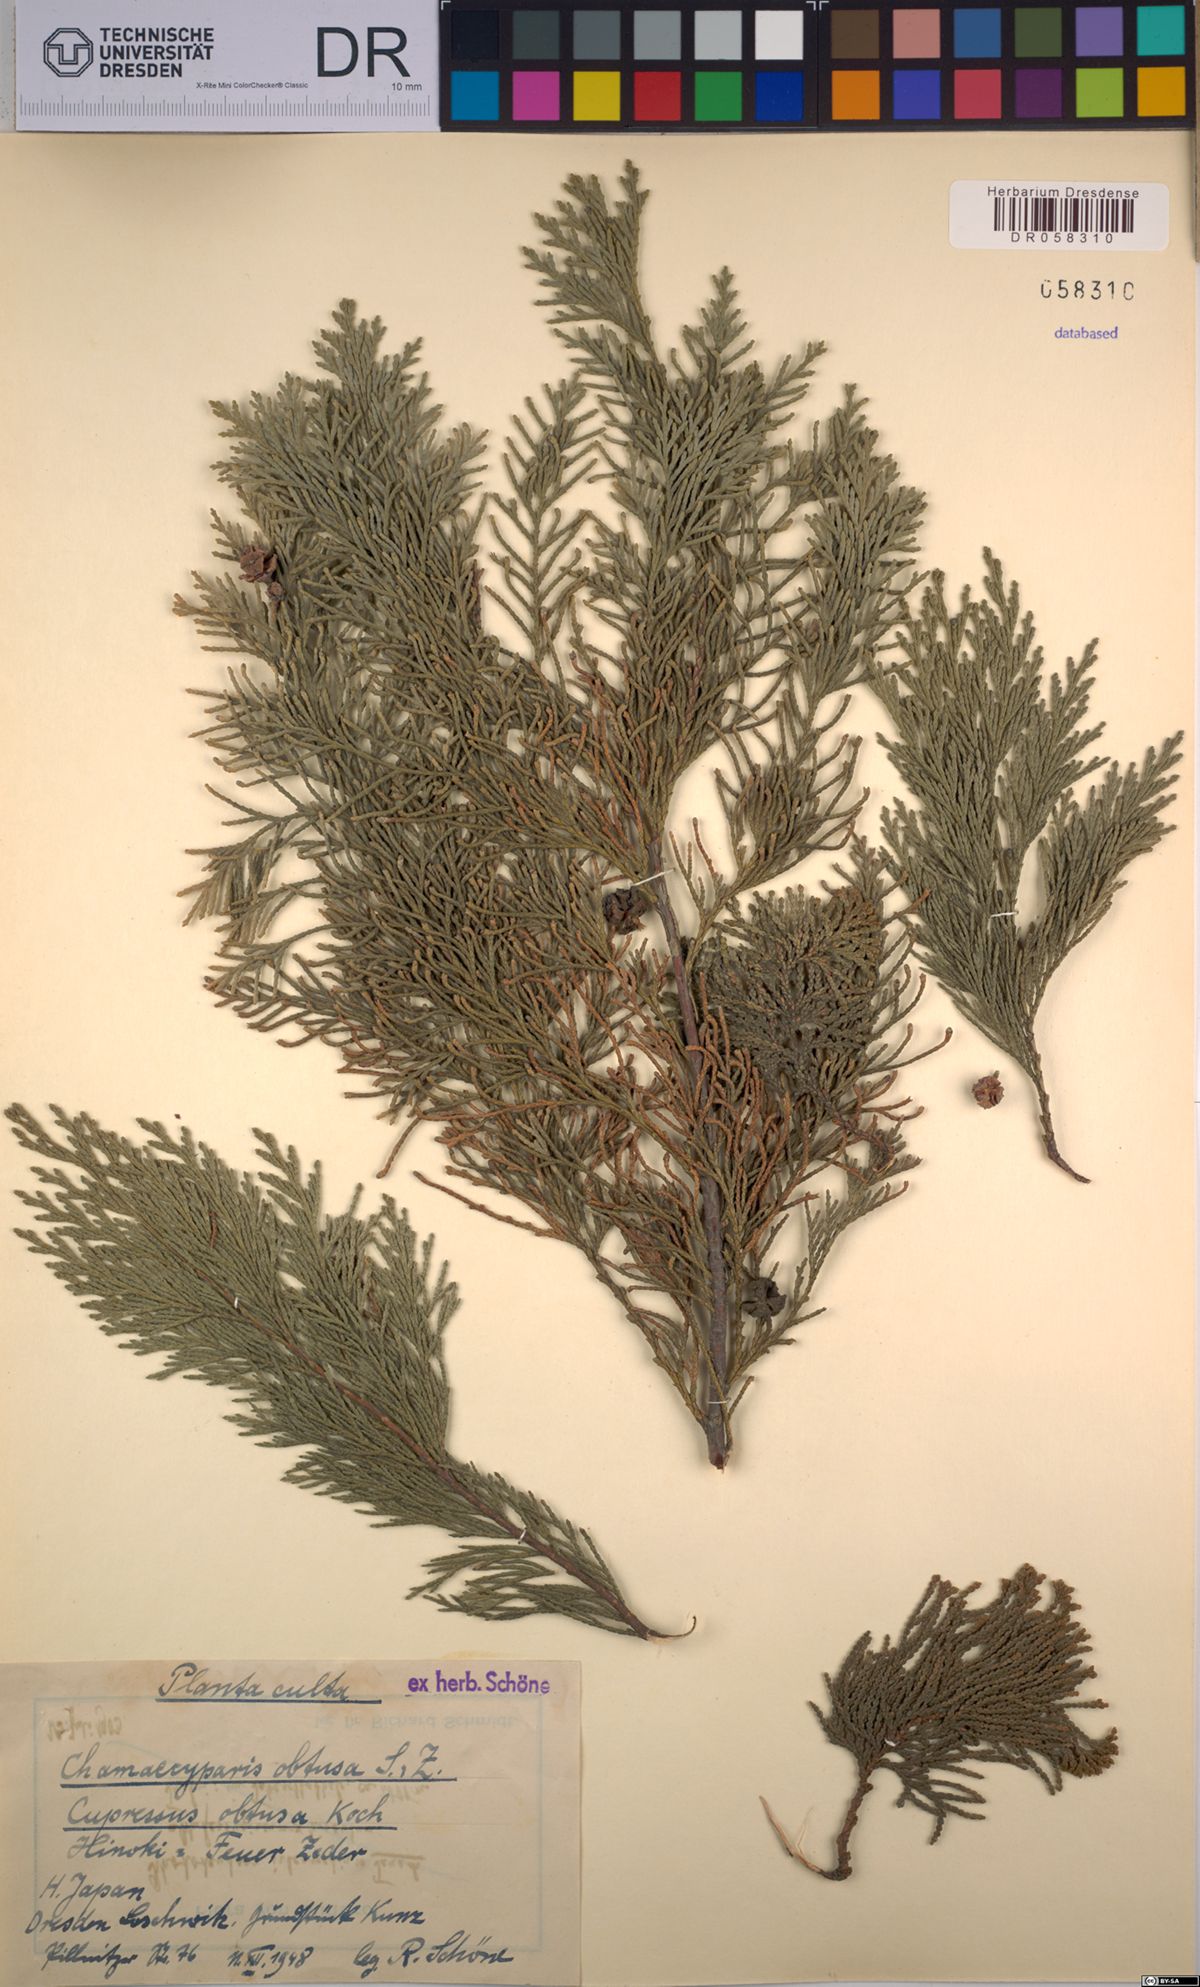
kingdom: Plantae
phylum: Tracheophyta
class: Pinopsida
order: Pinales
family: Cupressaceae
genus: Chamaecyparis
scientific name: Chamaecyparis obtusa
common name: Hinoki false cypress
